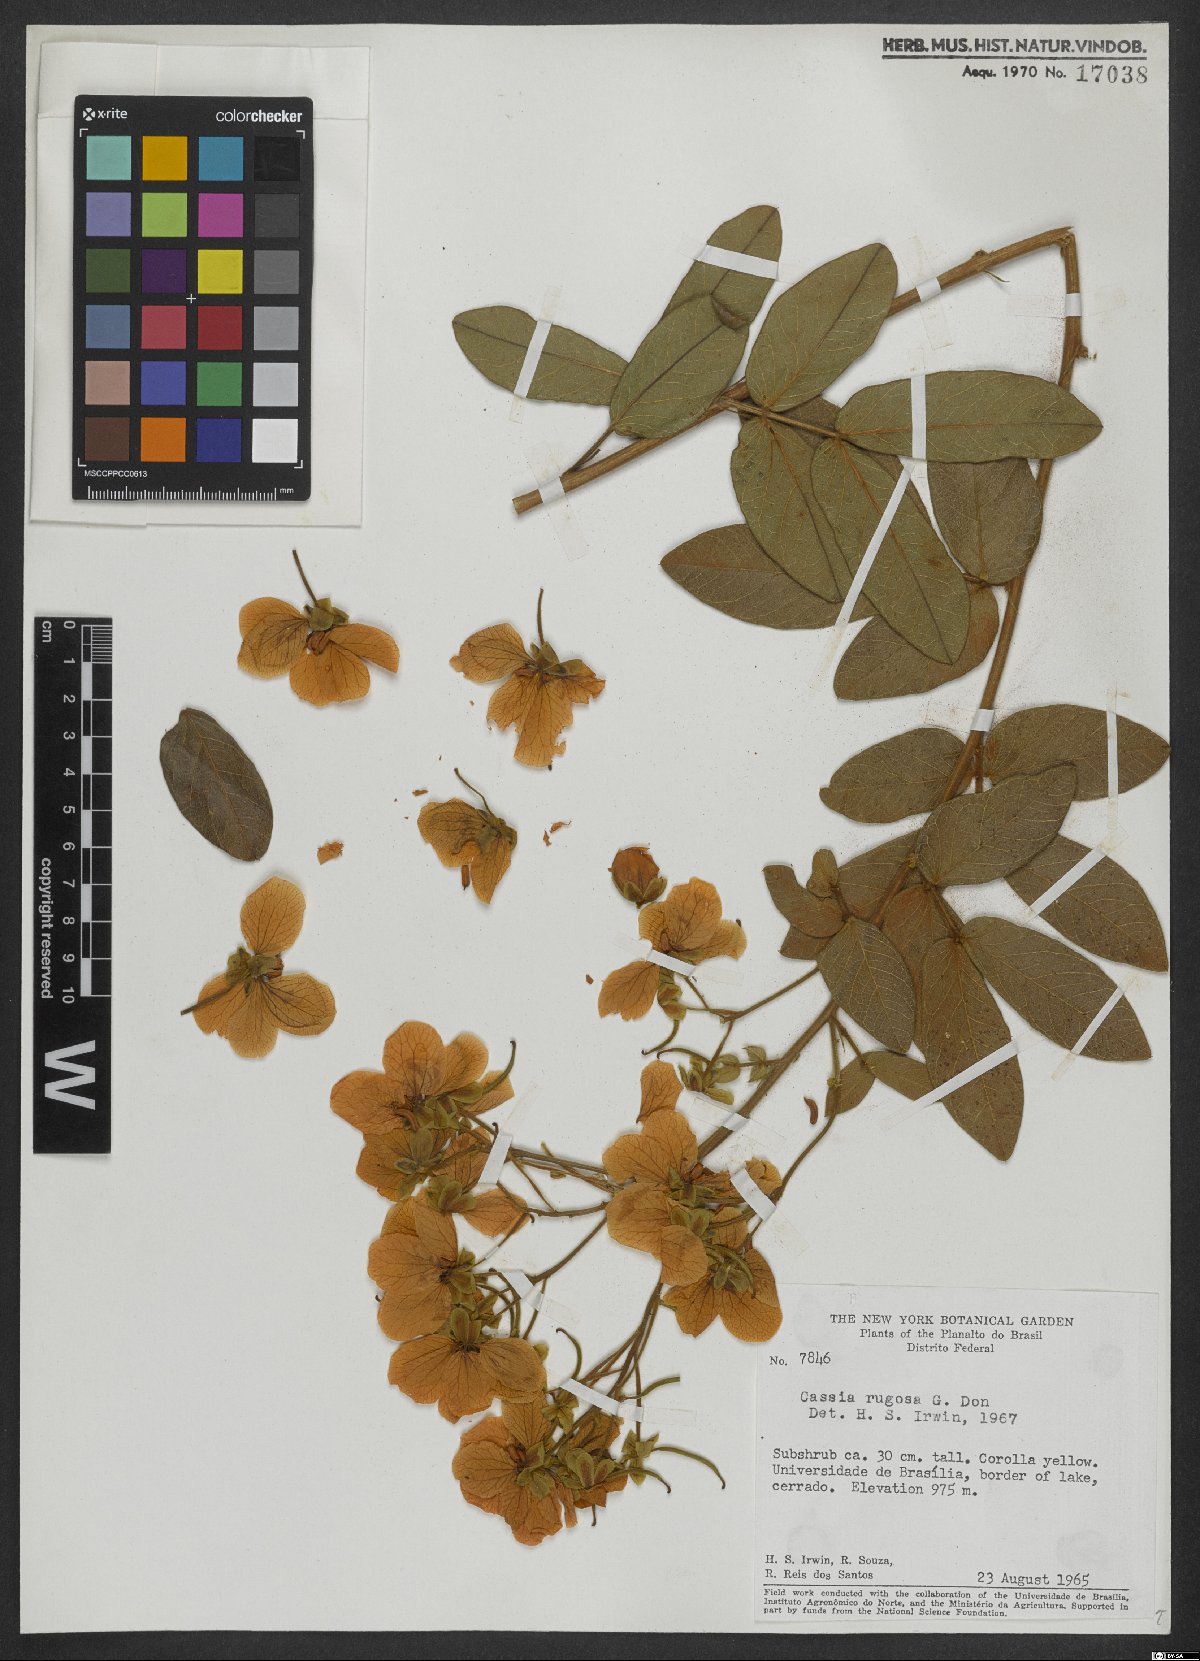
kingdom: Plantae
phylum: Tracheophyta
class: Magnoliopsida
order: Fabales
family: Fabaceae
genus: Senna
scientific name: Senna rugosa
